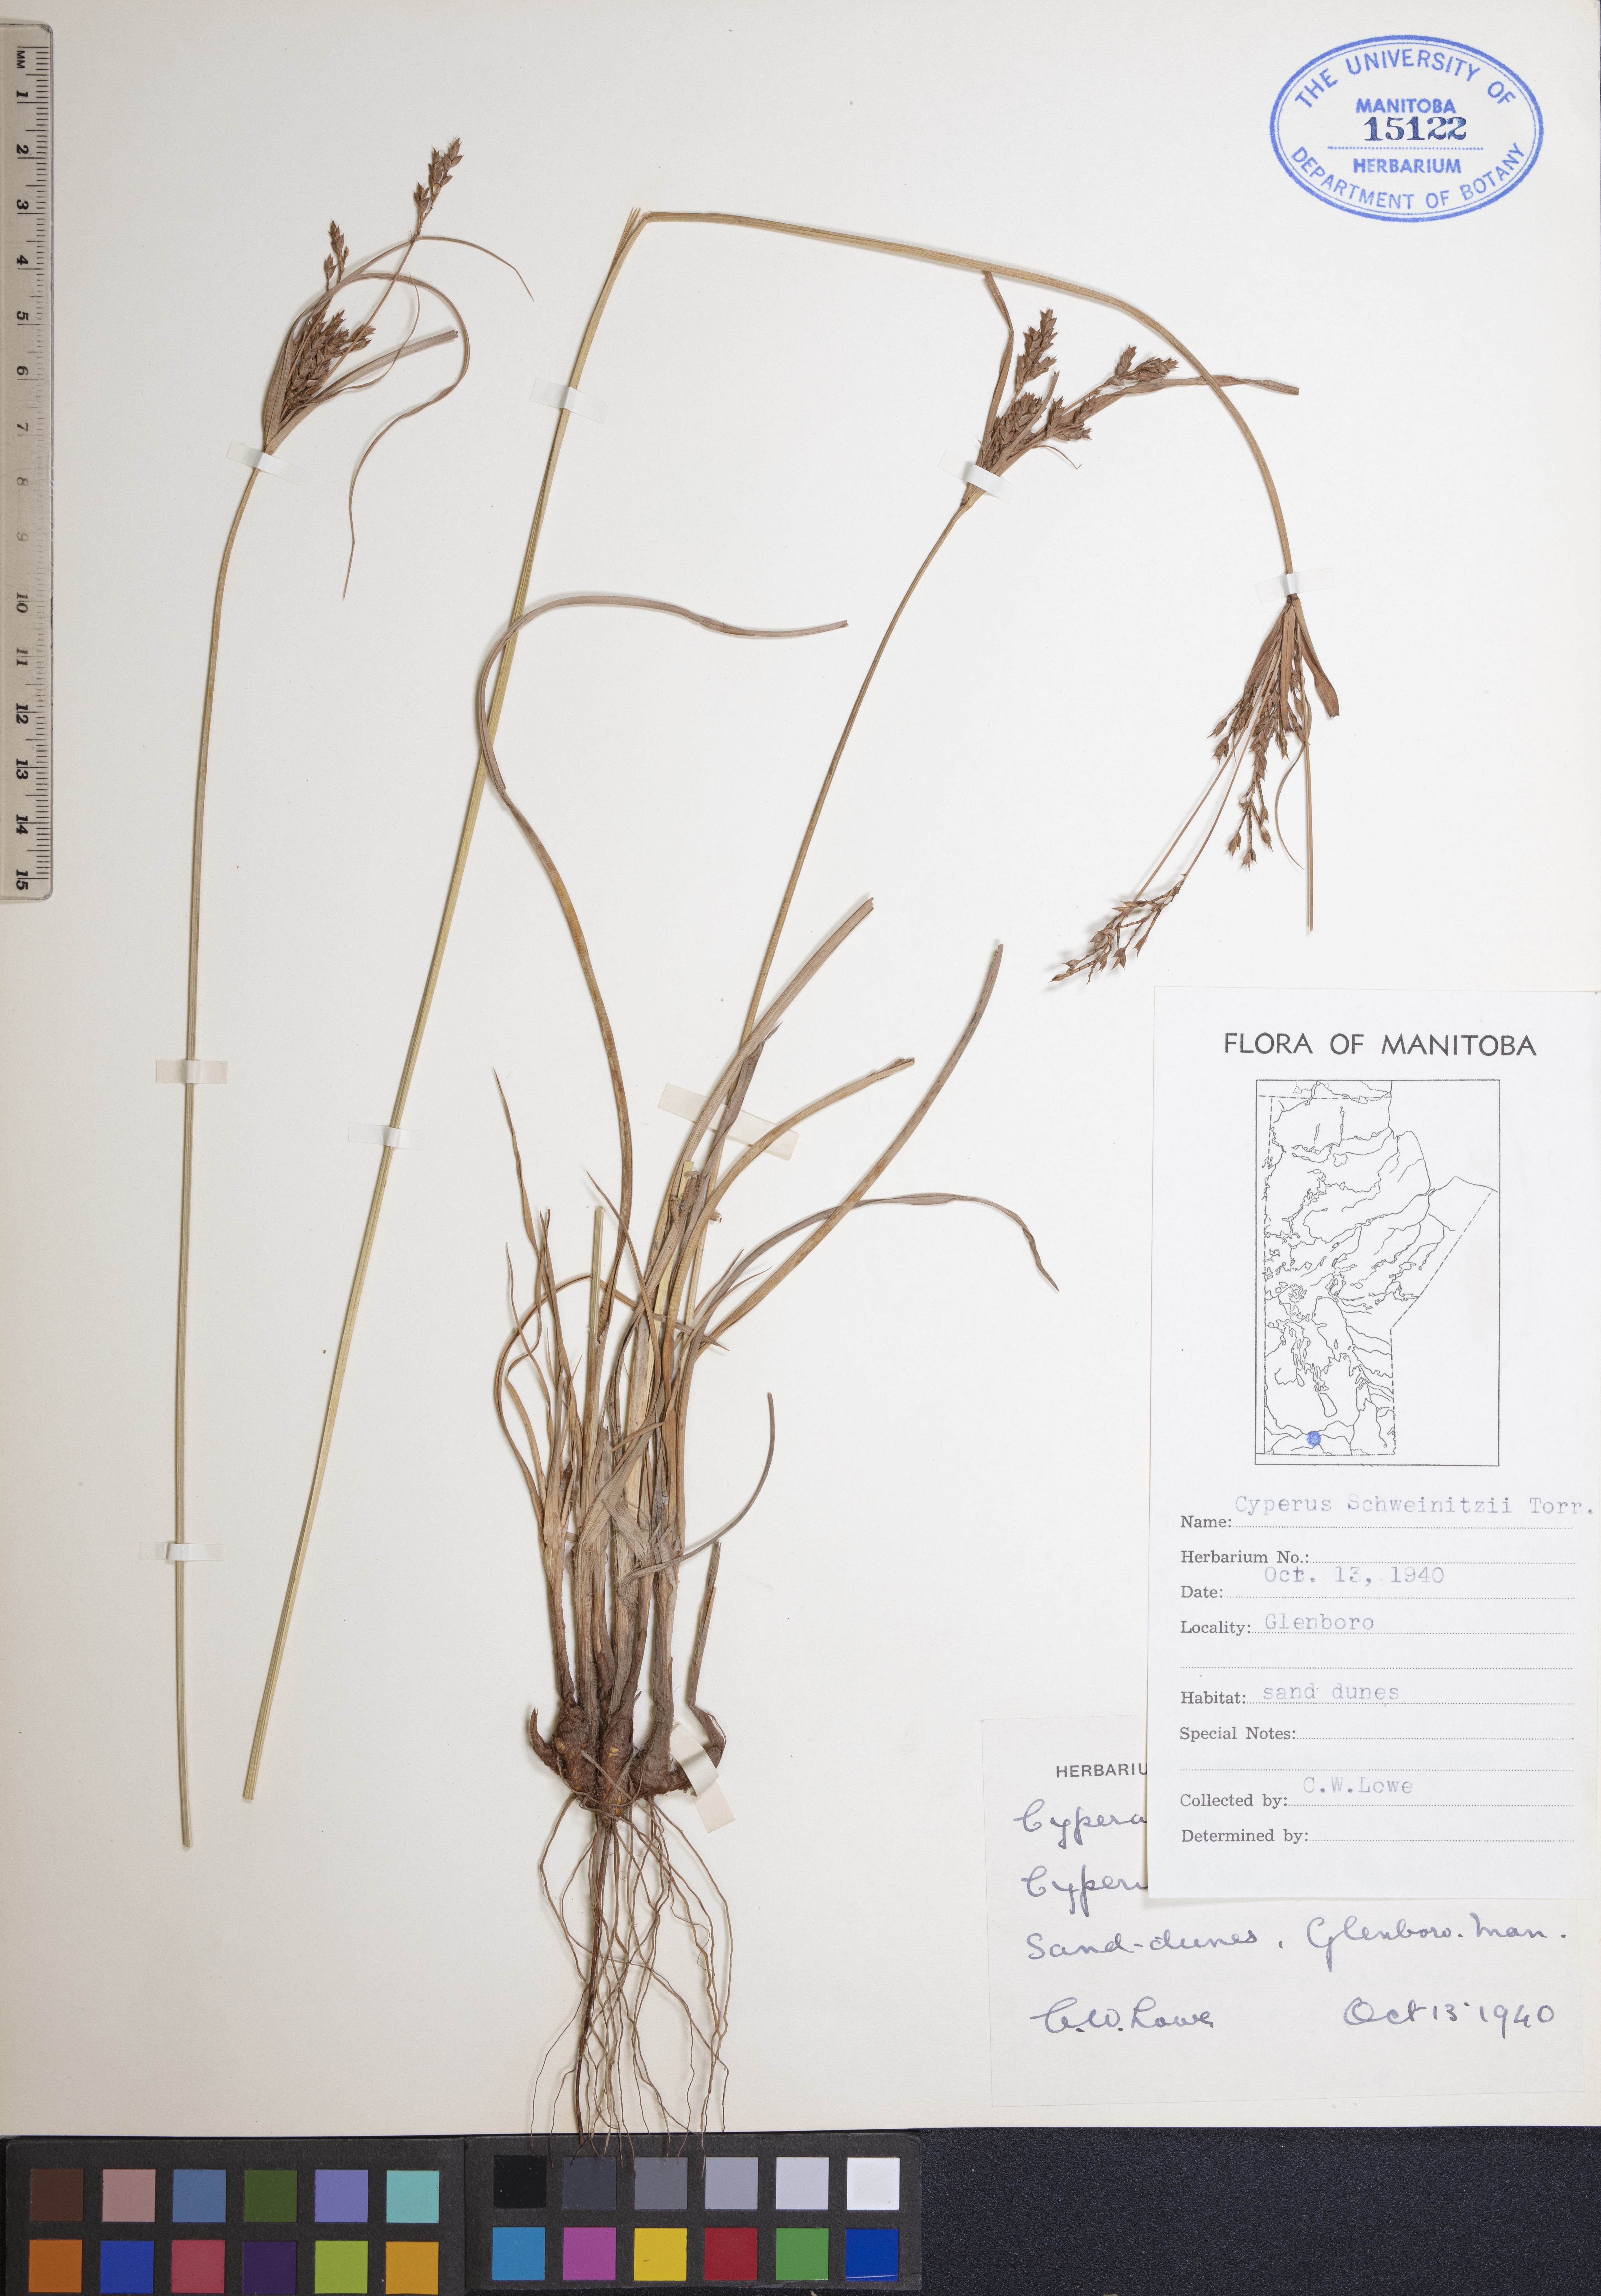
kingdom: Plantae
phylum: Tracheophyta
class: Liliopsida
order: Poales
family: Cyperaceae
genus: Cyperus
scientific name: Cyperus schweinitzii
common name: Schweinitz's cyperus
